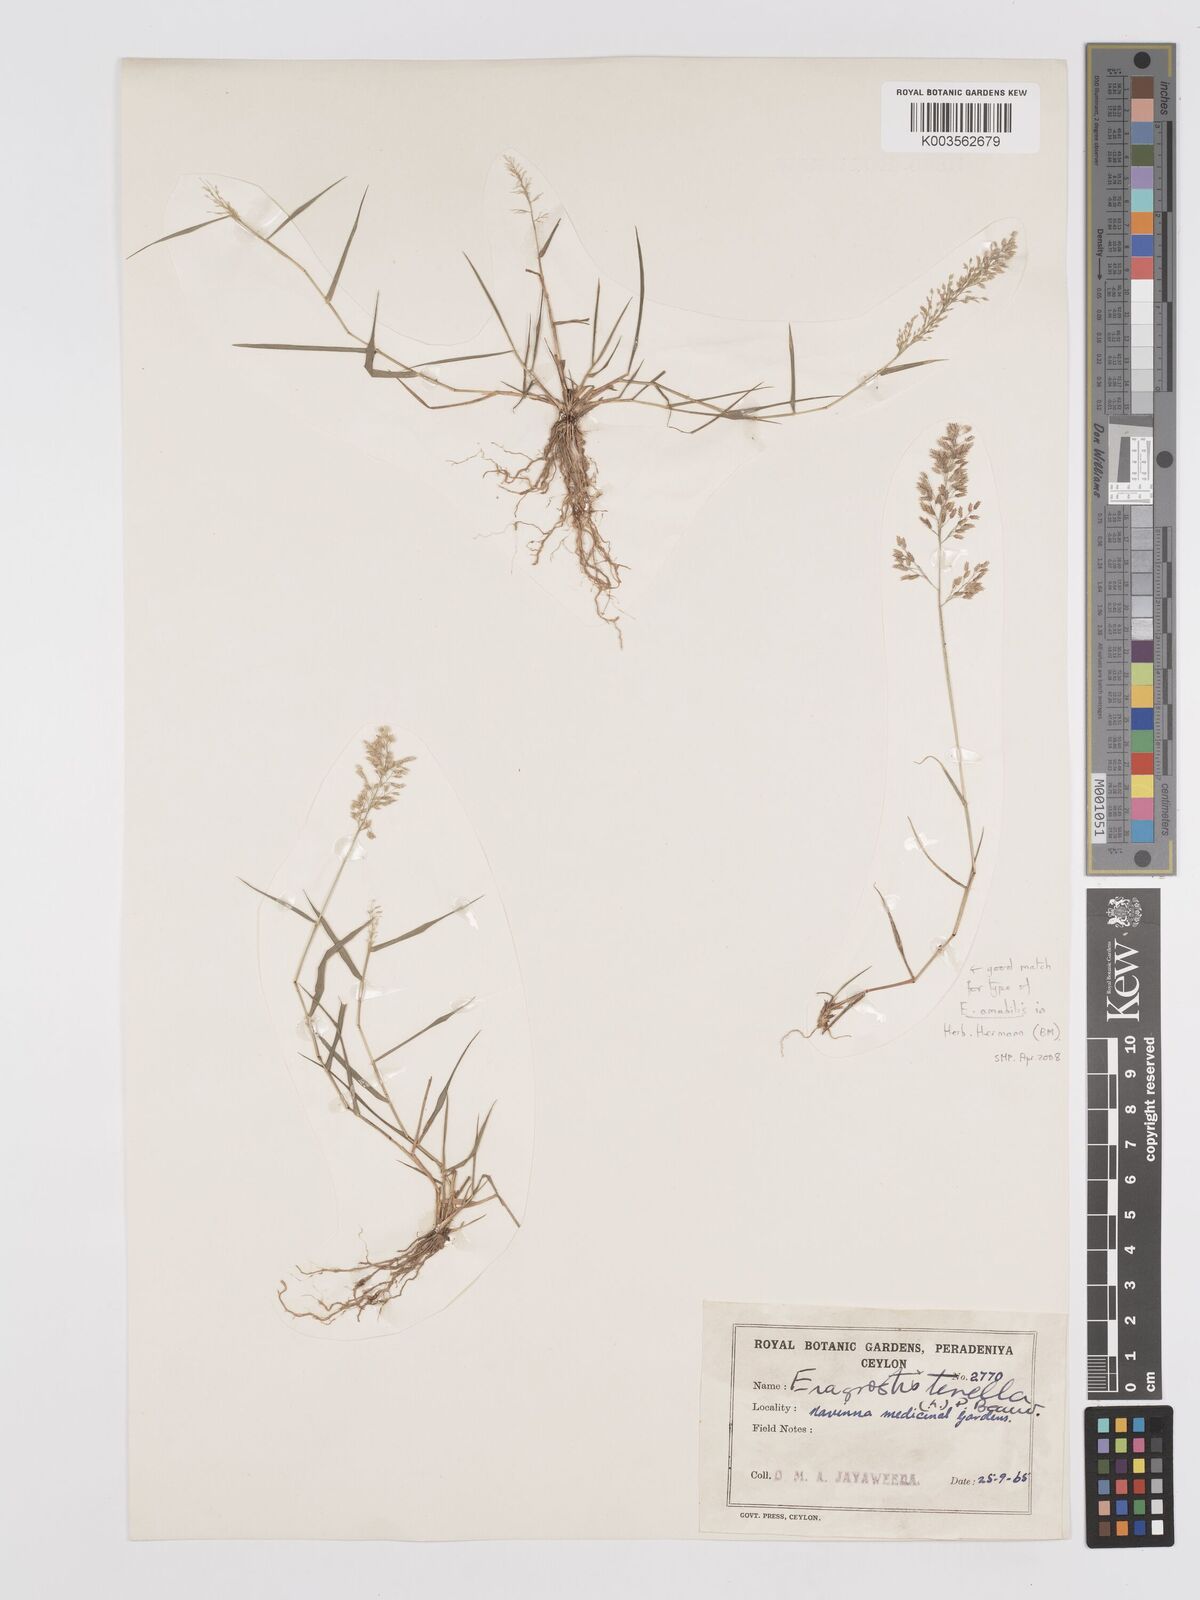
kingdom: Plantae
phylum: Tracheophyta
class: Liliopsida
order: Poales
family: Poaceae
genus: Eragrostis
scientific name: Eragrostis tenella
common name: Japanese lovegrass
